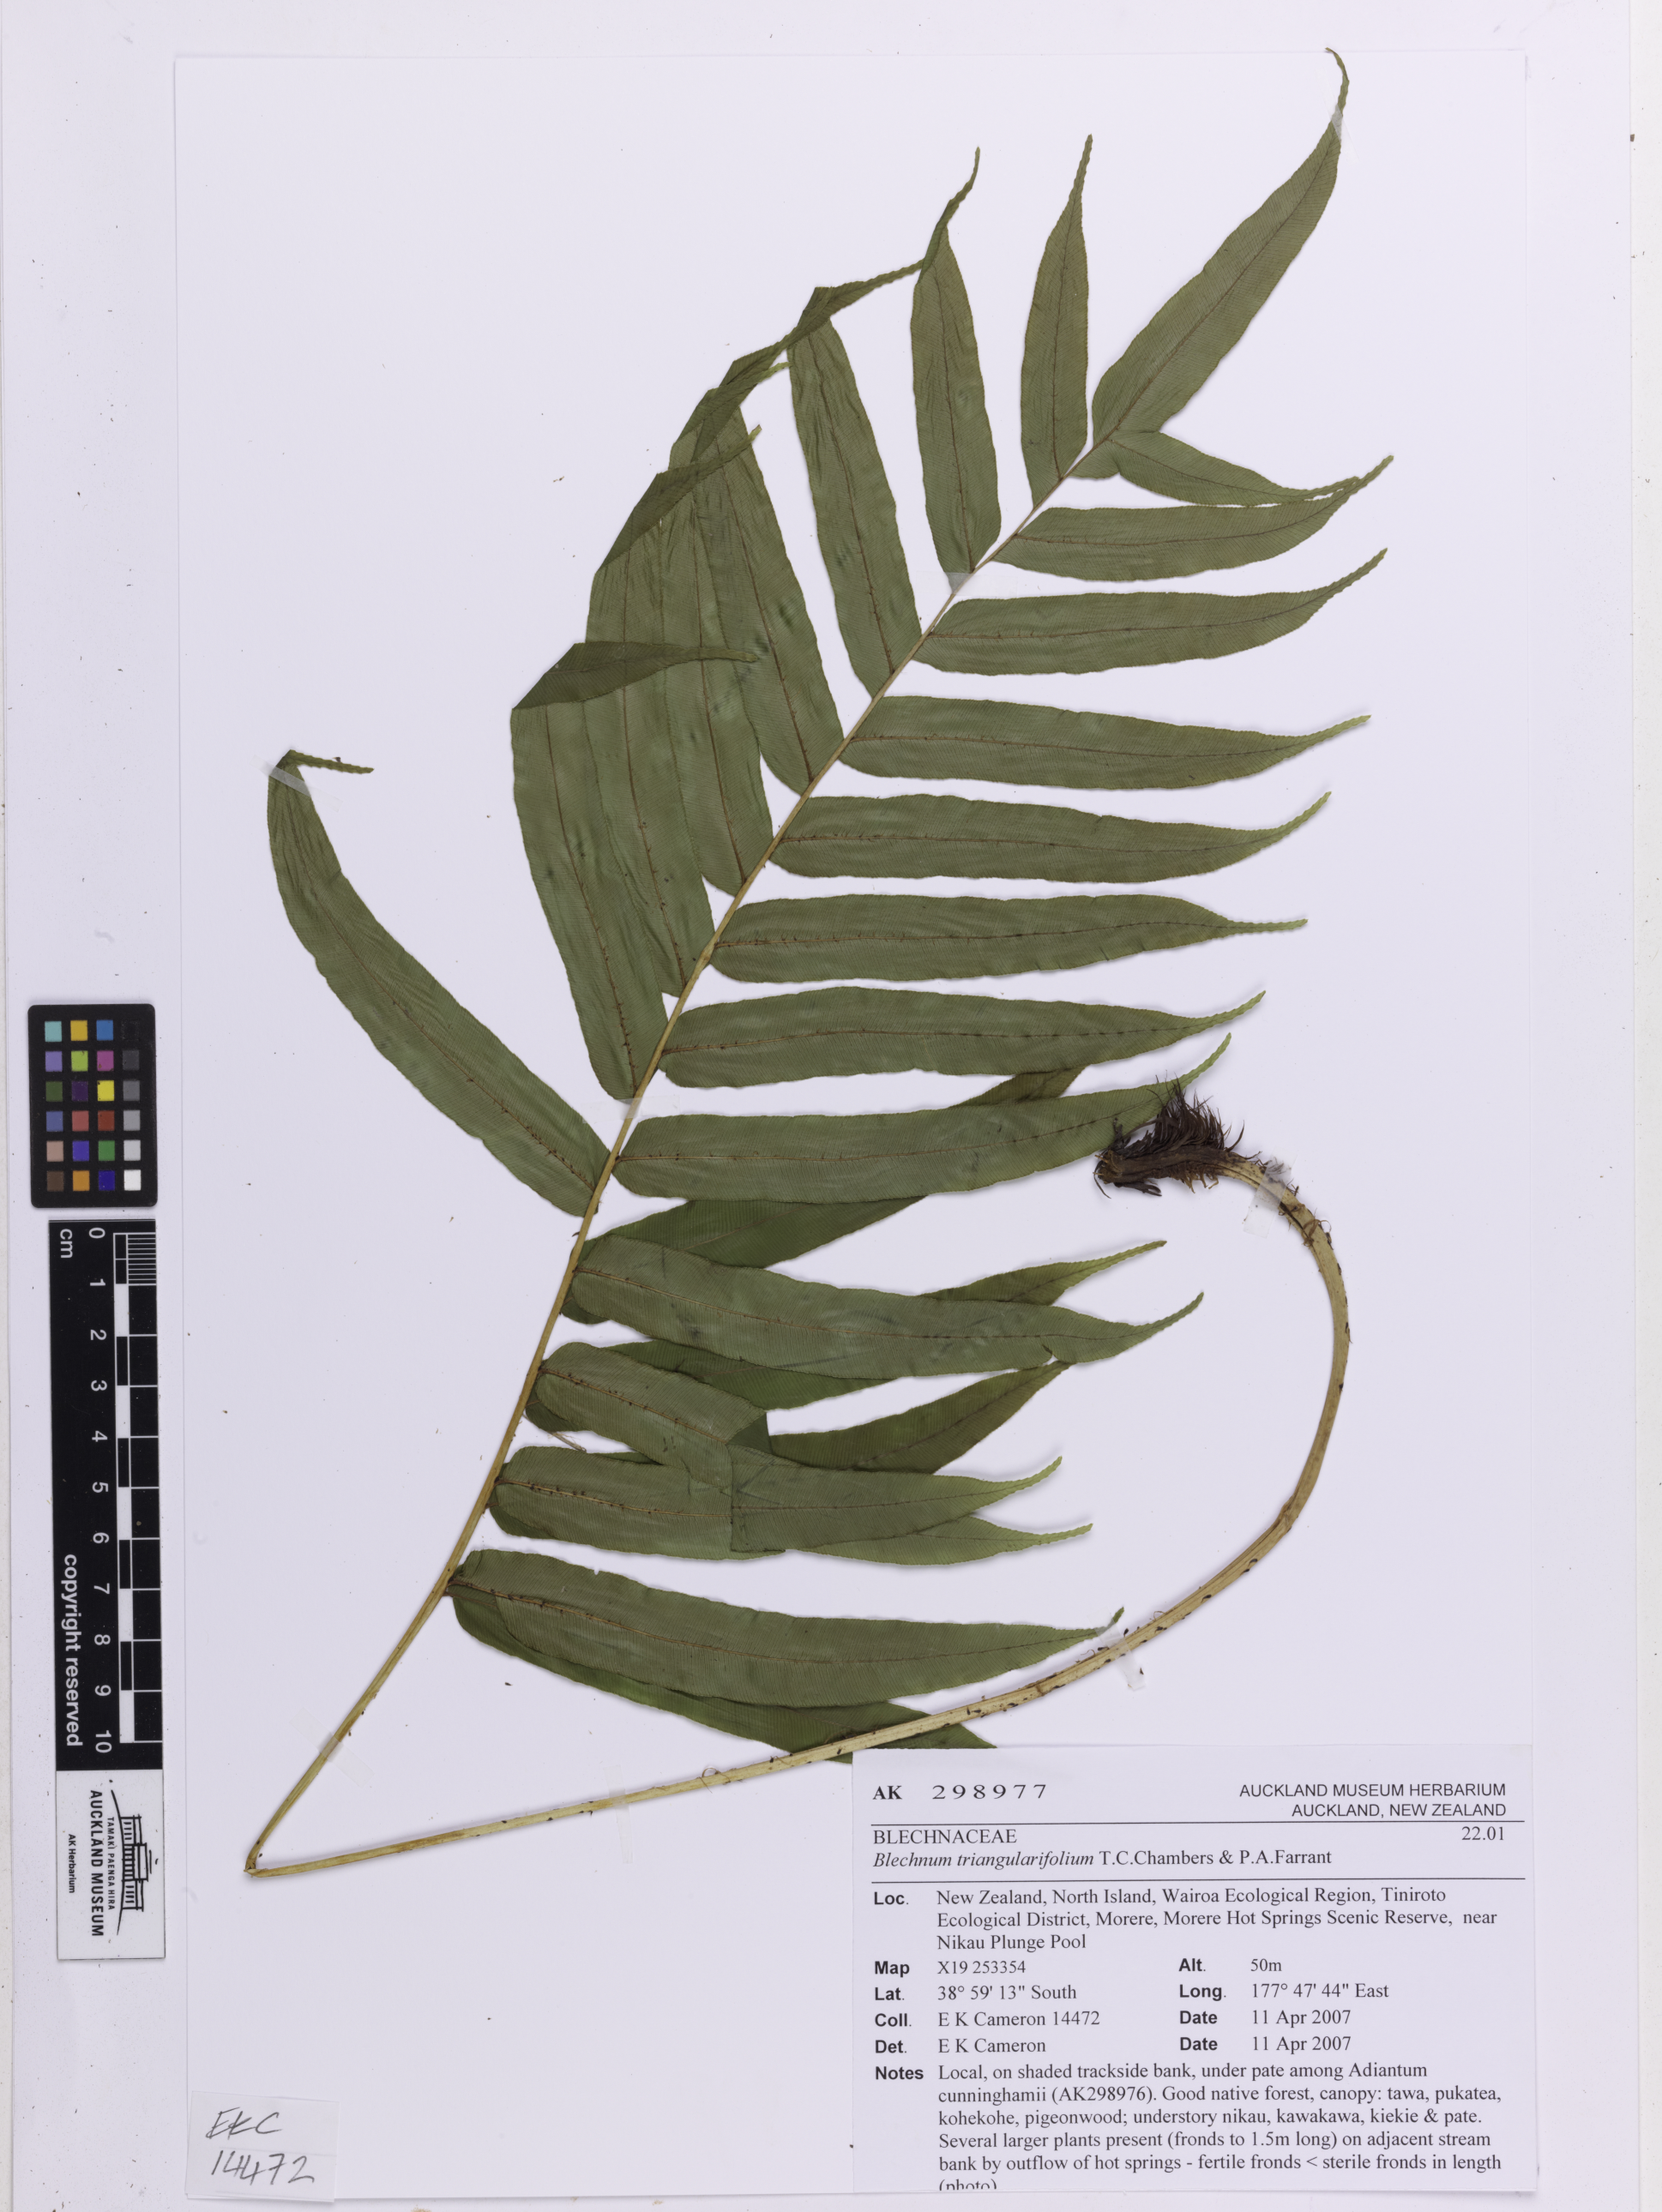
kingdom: Plantae
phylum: Tracheophyta
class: Polypodiopsida
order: Polypodiales
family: Blechnaceae
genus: Parablechnum
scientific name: Parablechnum triangularifolium
